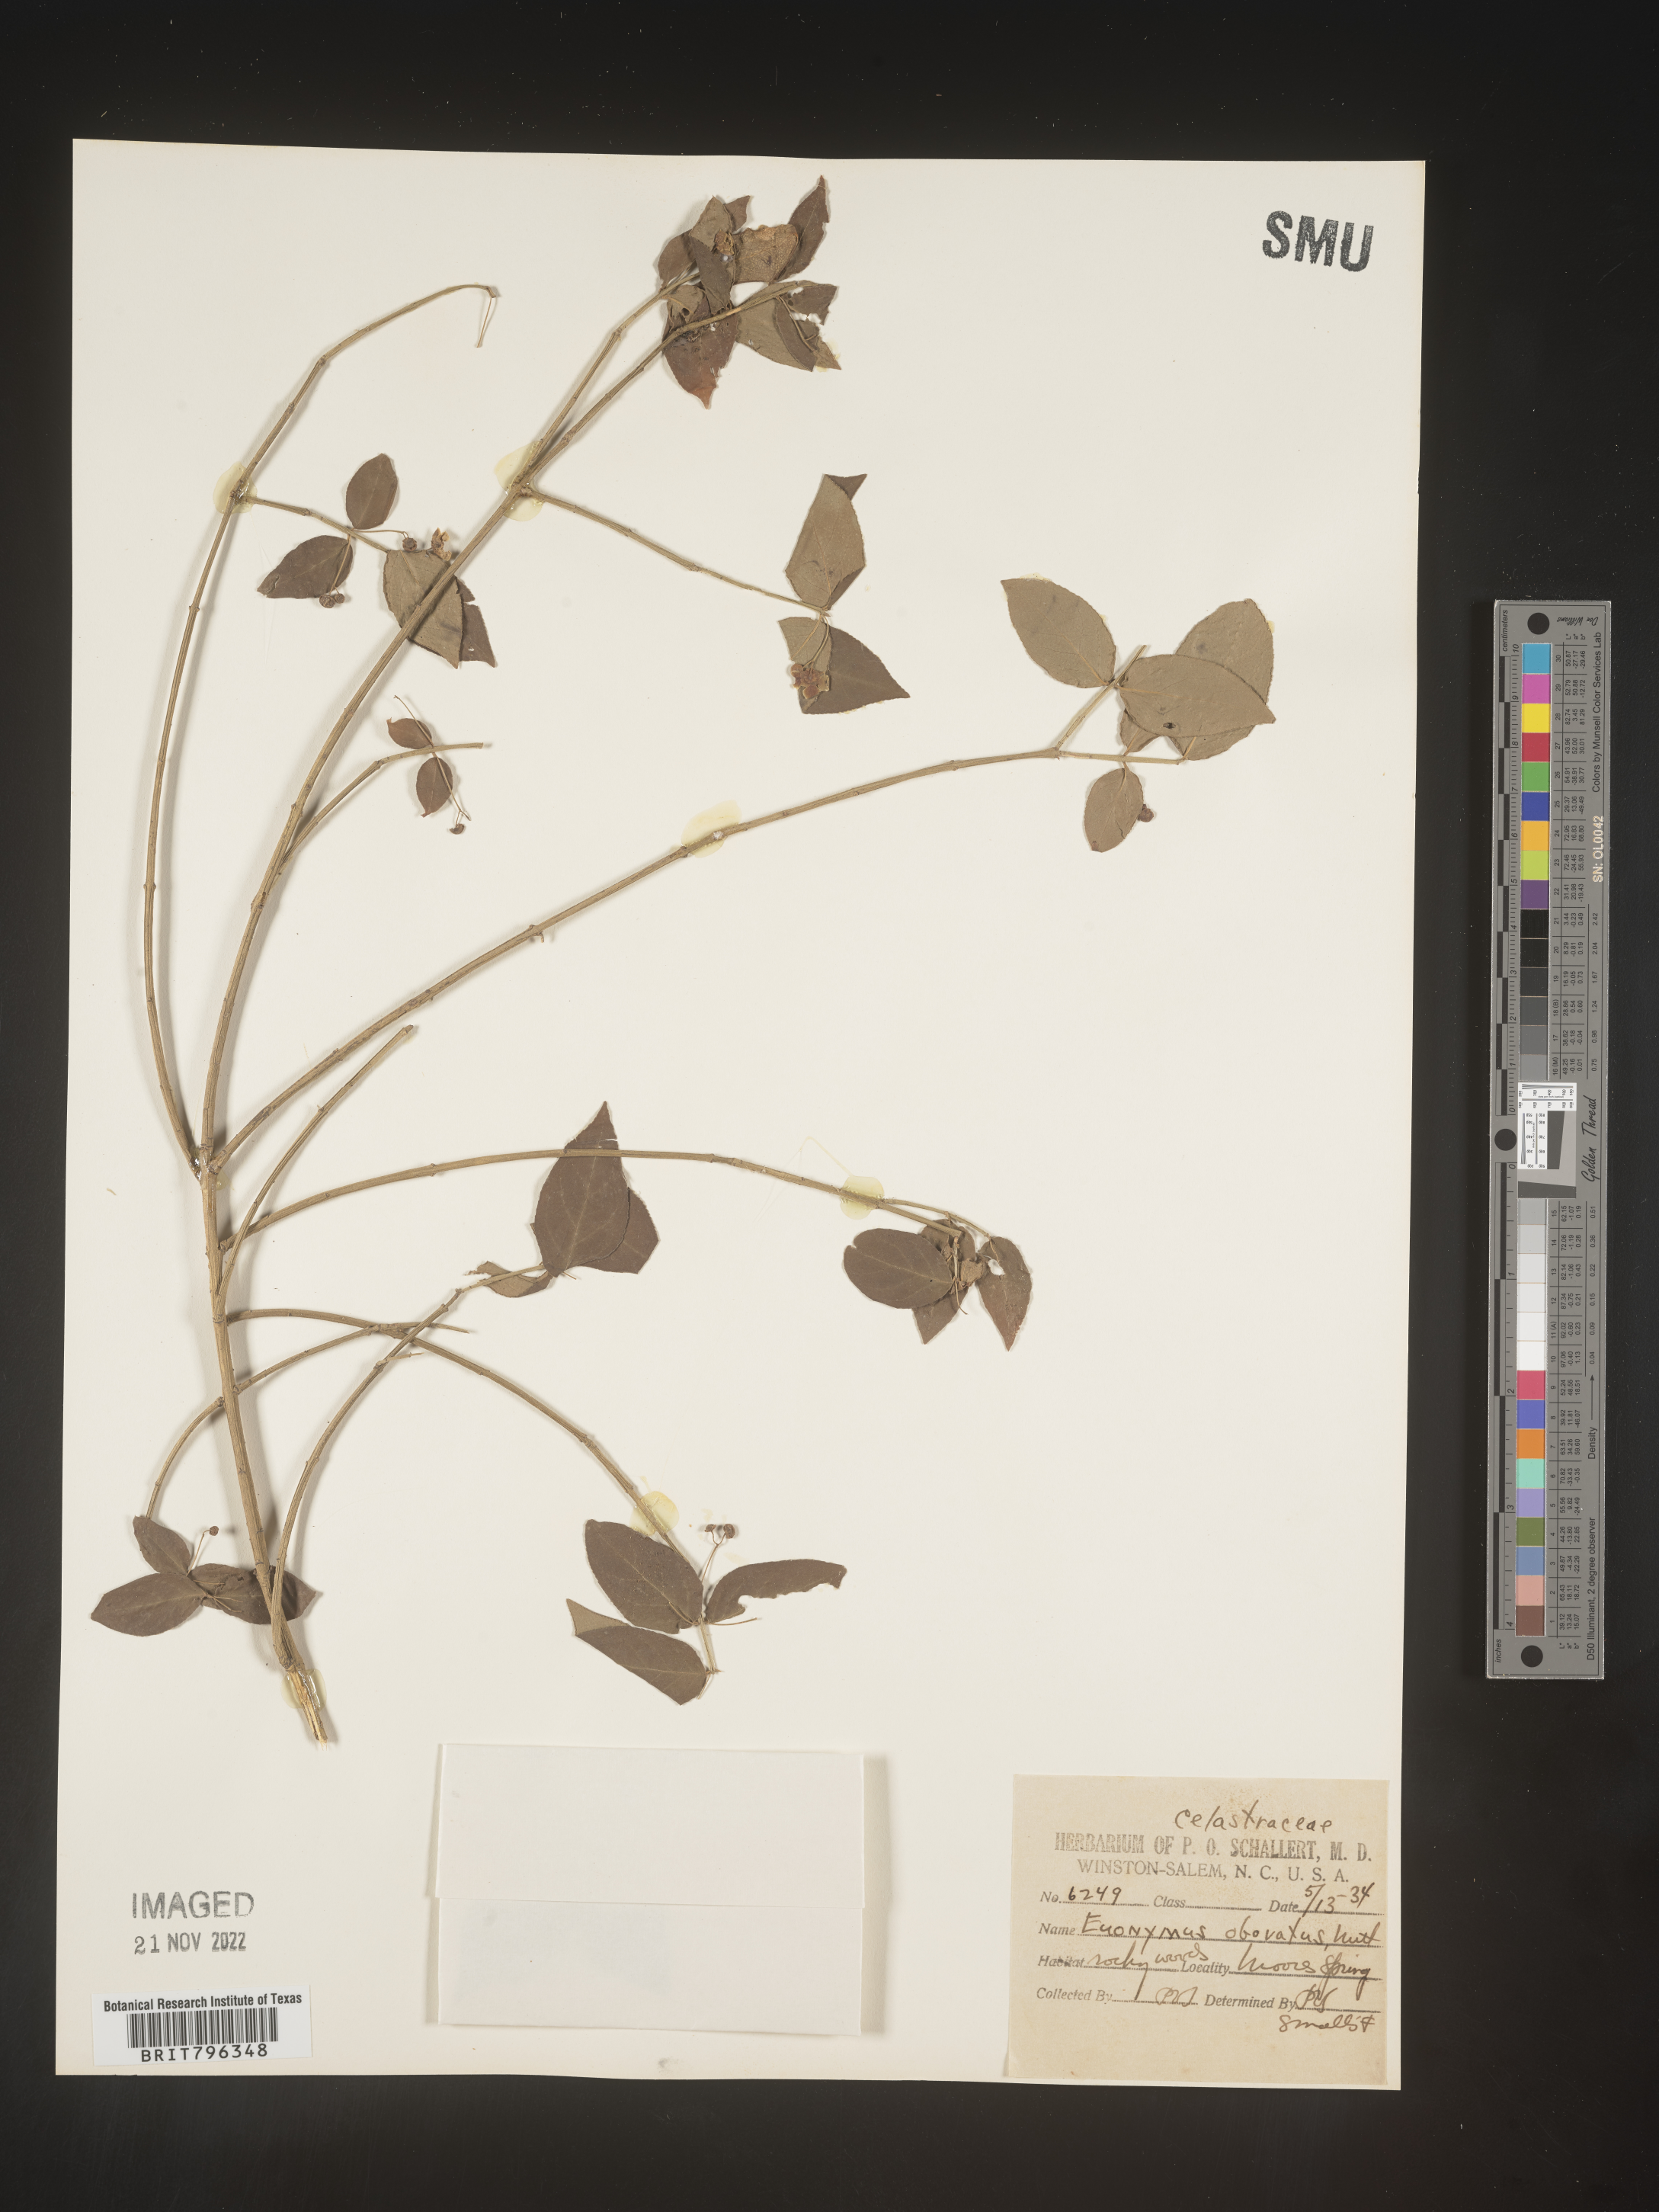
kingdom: Plantae
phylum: Tracheophyta
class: Magnoliopsida
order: Celastrales
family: Celastraceae
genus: Euonymus
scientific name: Euonymus obovatus
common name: Running strawberry-bush
